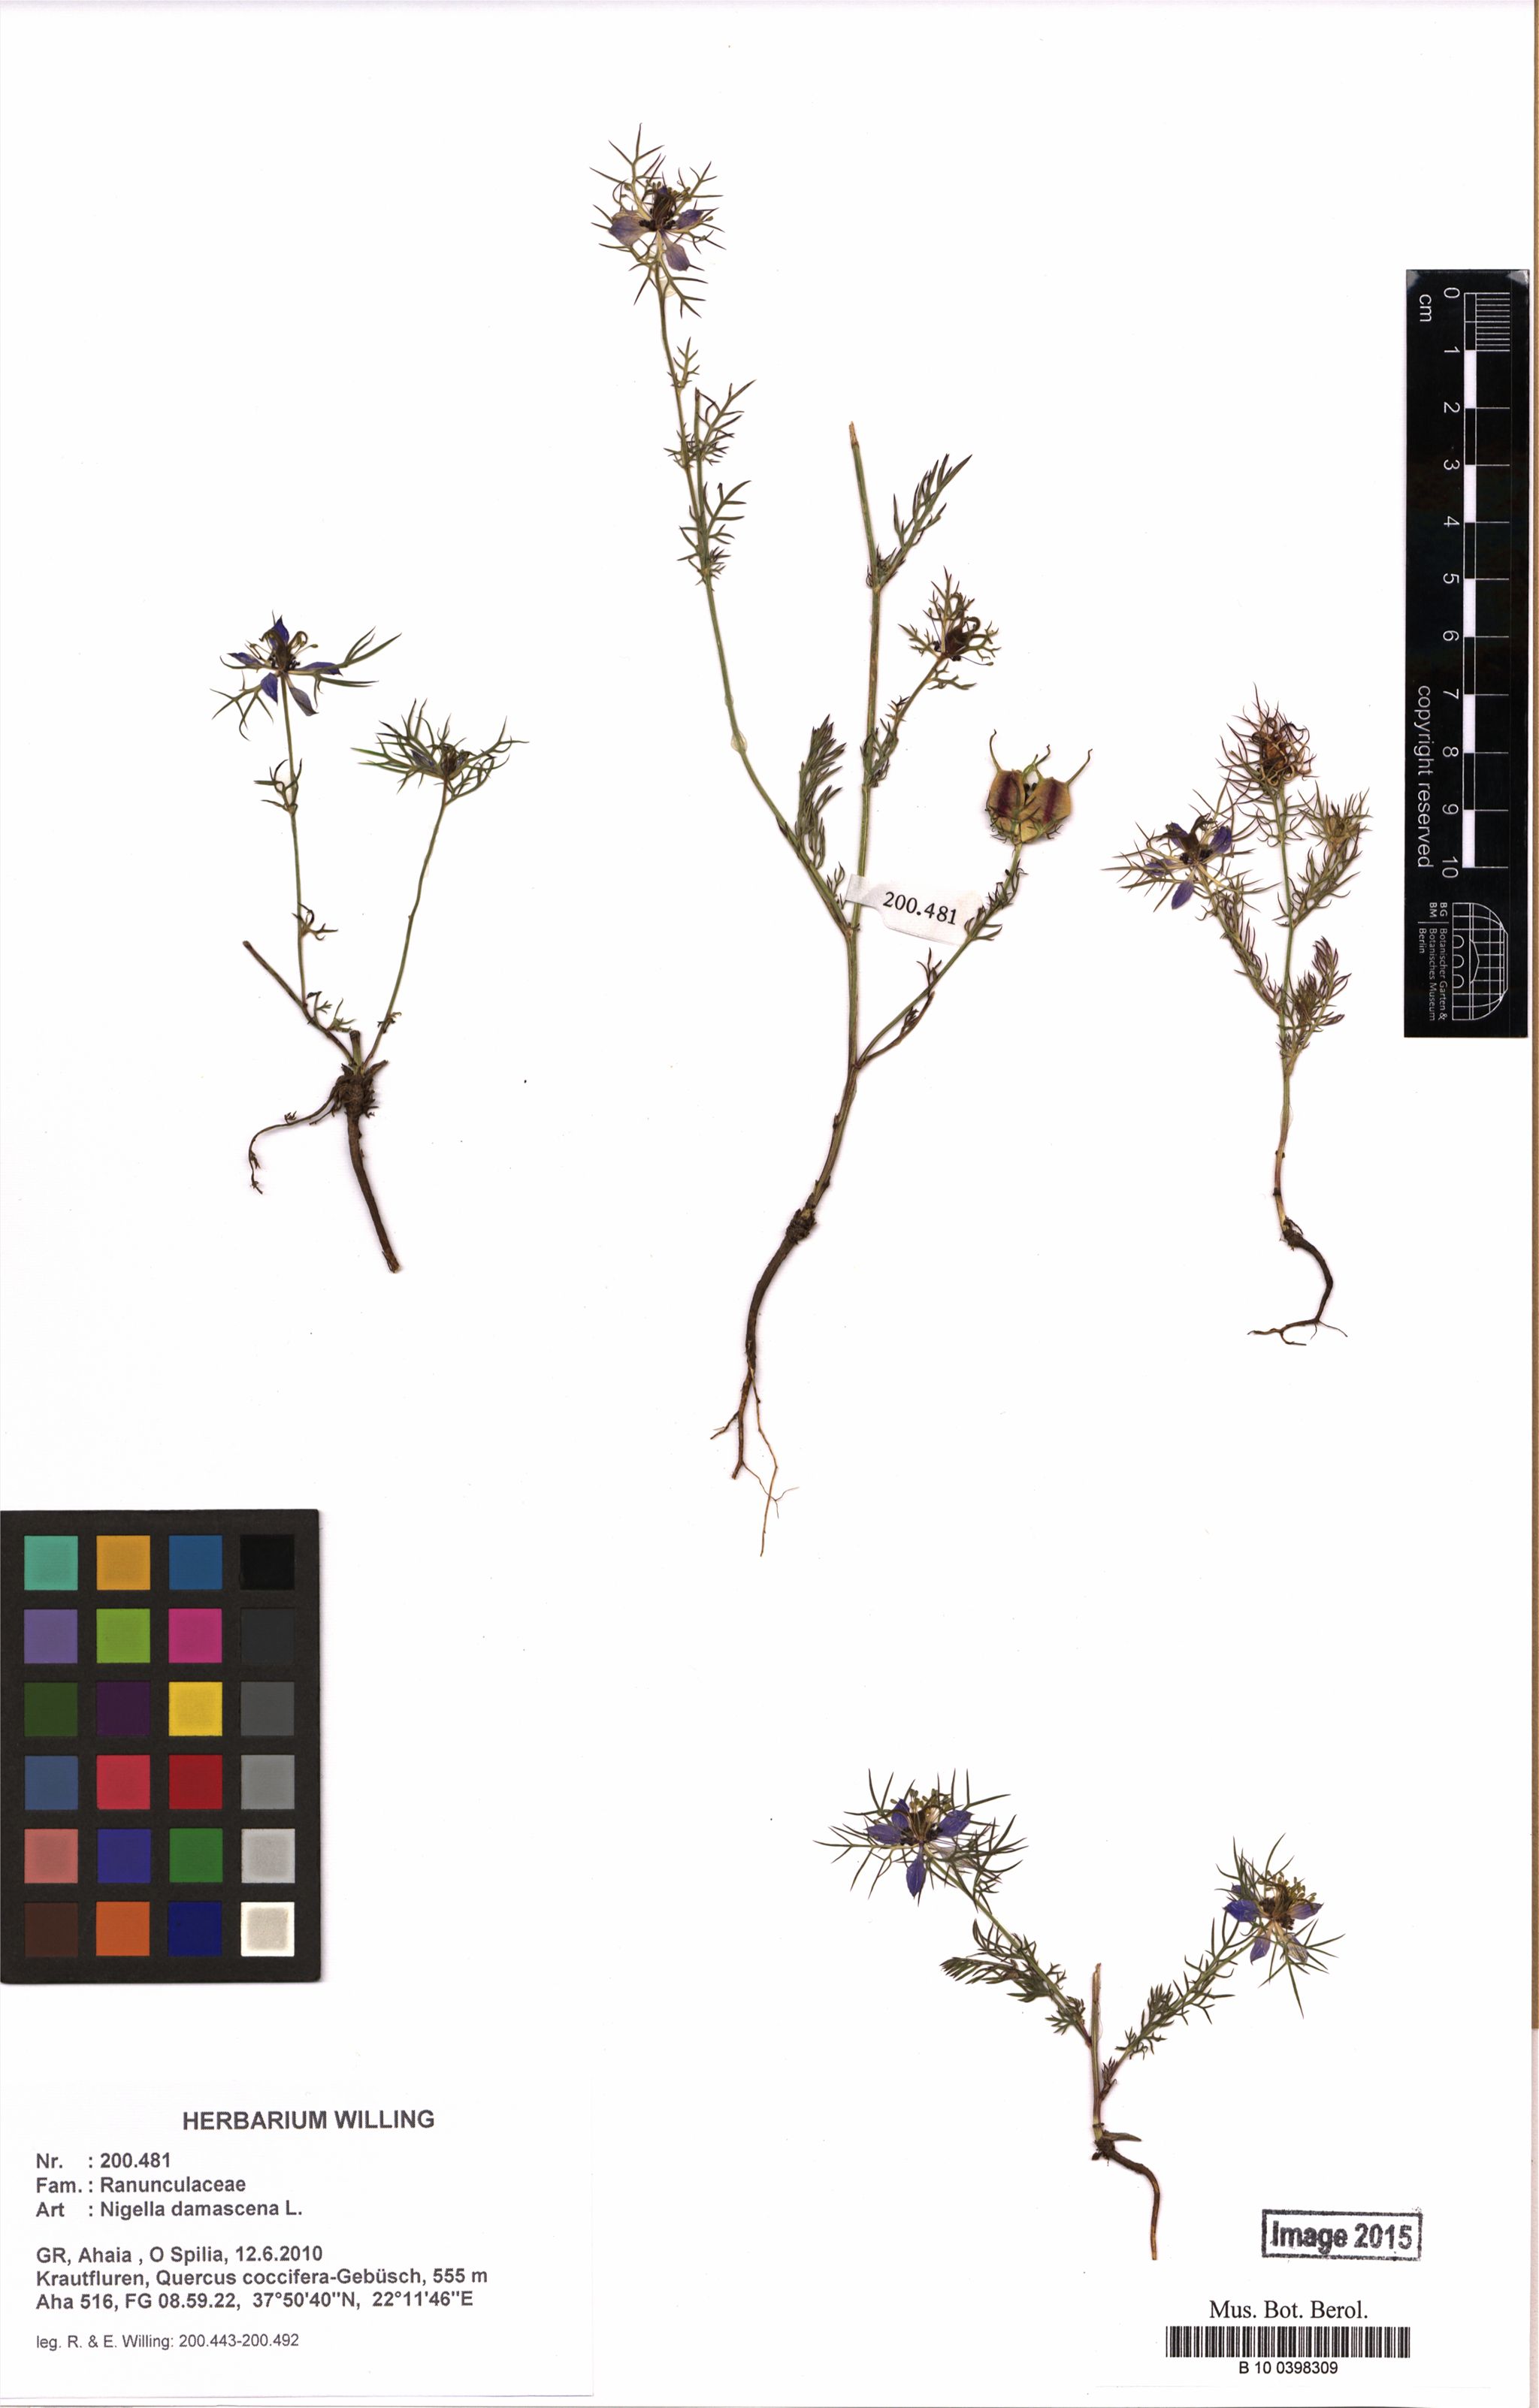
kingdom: Plantae
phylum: Tracheophyta
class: Magnoliopsida
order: Ranunculales
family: Ranunculaceae
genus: Nigella
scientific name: Nigella damascena
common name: Love-in-a-mist
